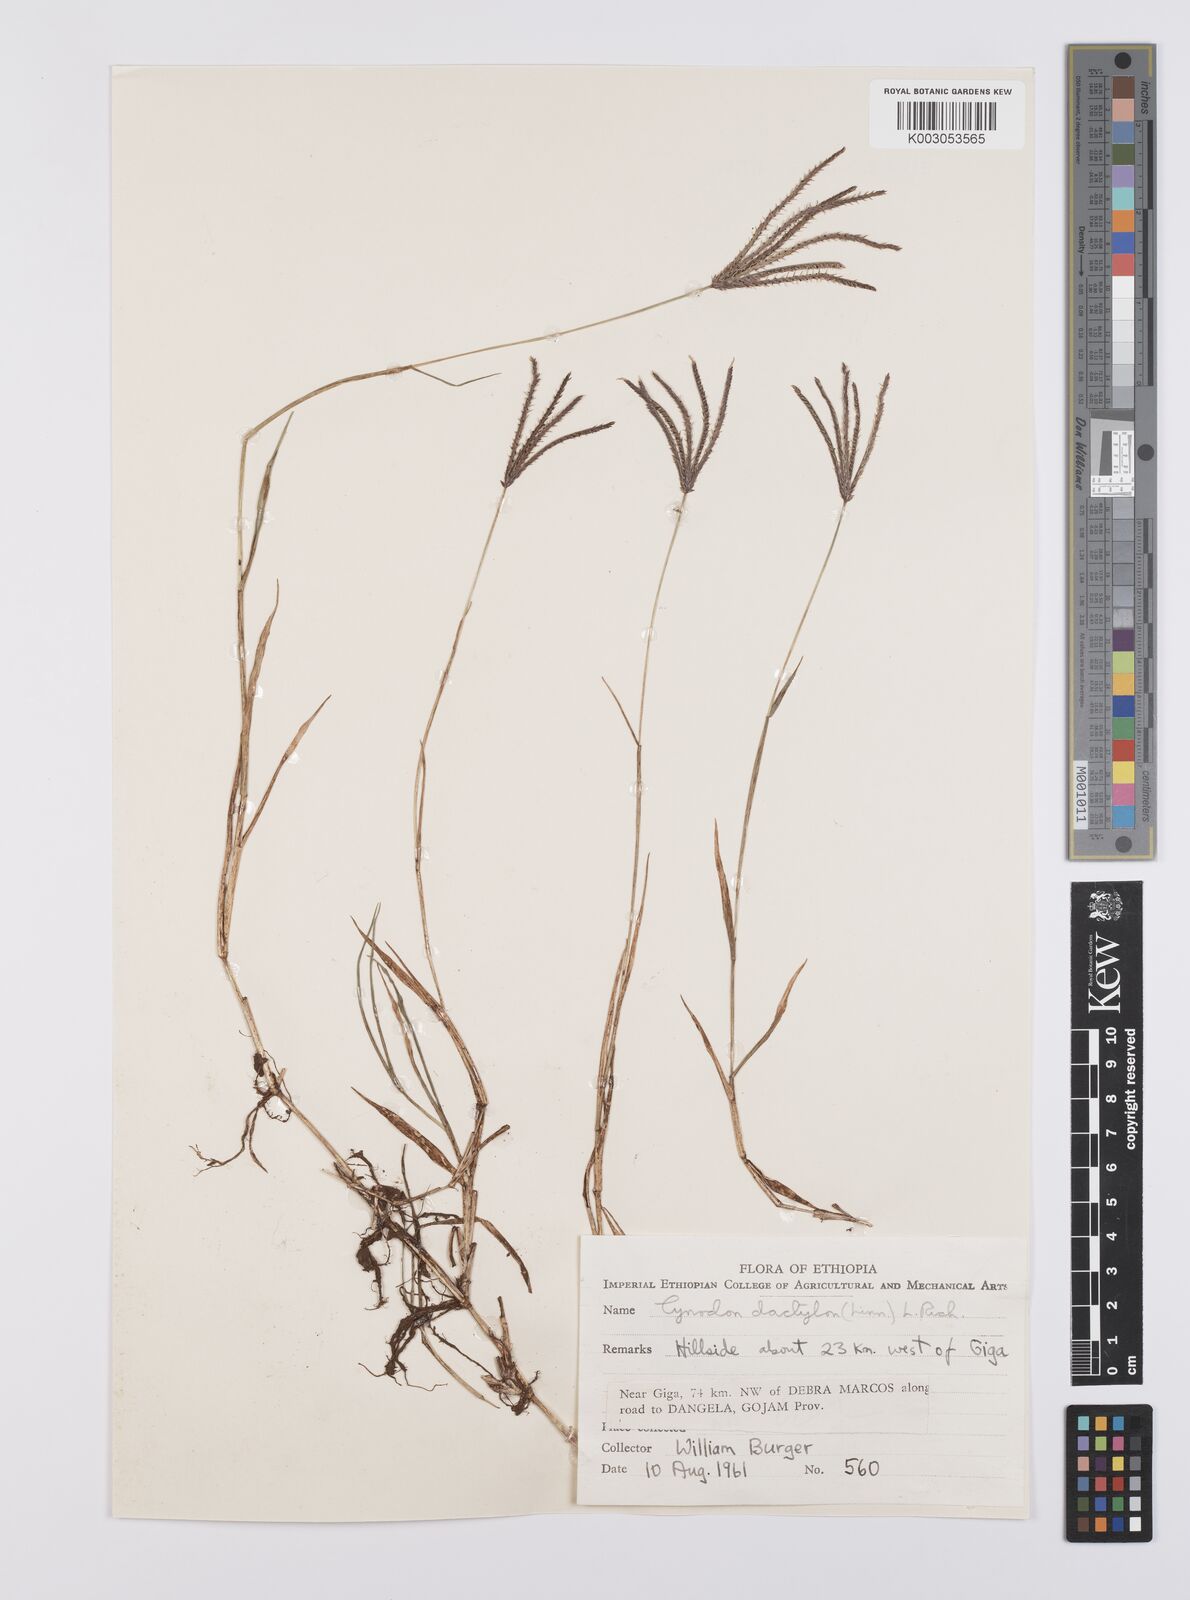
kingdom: Plantae
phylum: Tracheophyta
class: Liliopsida
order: Poales
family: Poaceae
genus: Cynodon
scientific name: Cynodon dactylon
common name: Bermuda grass
